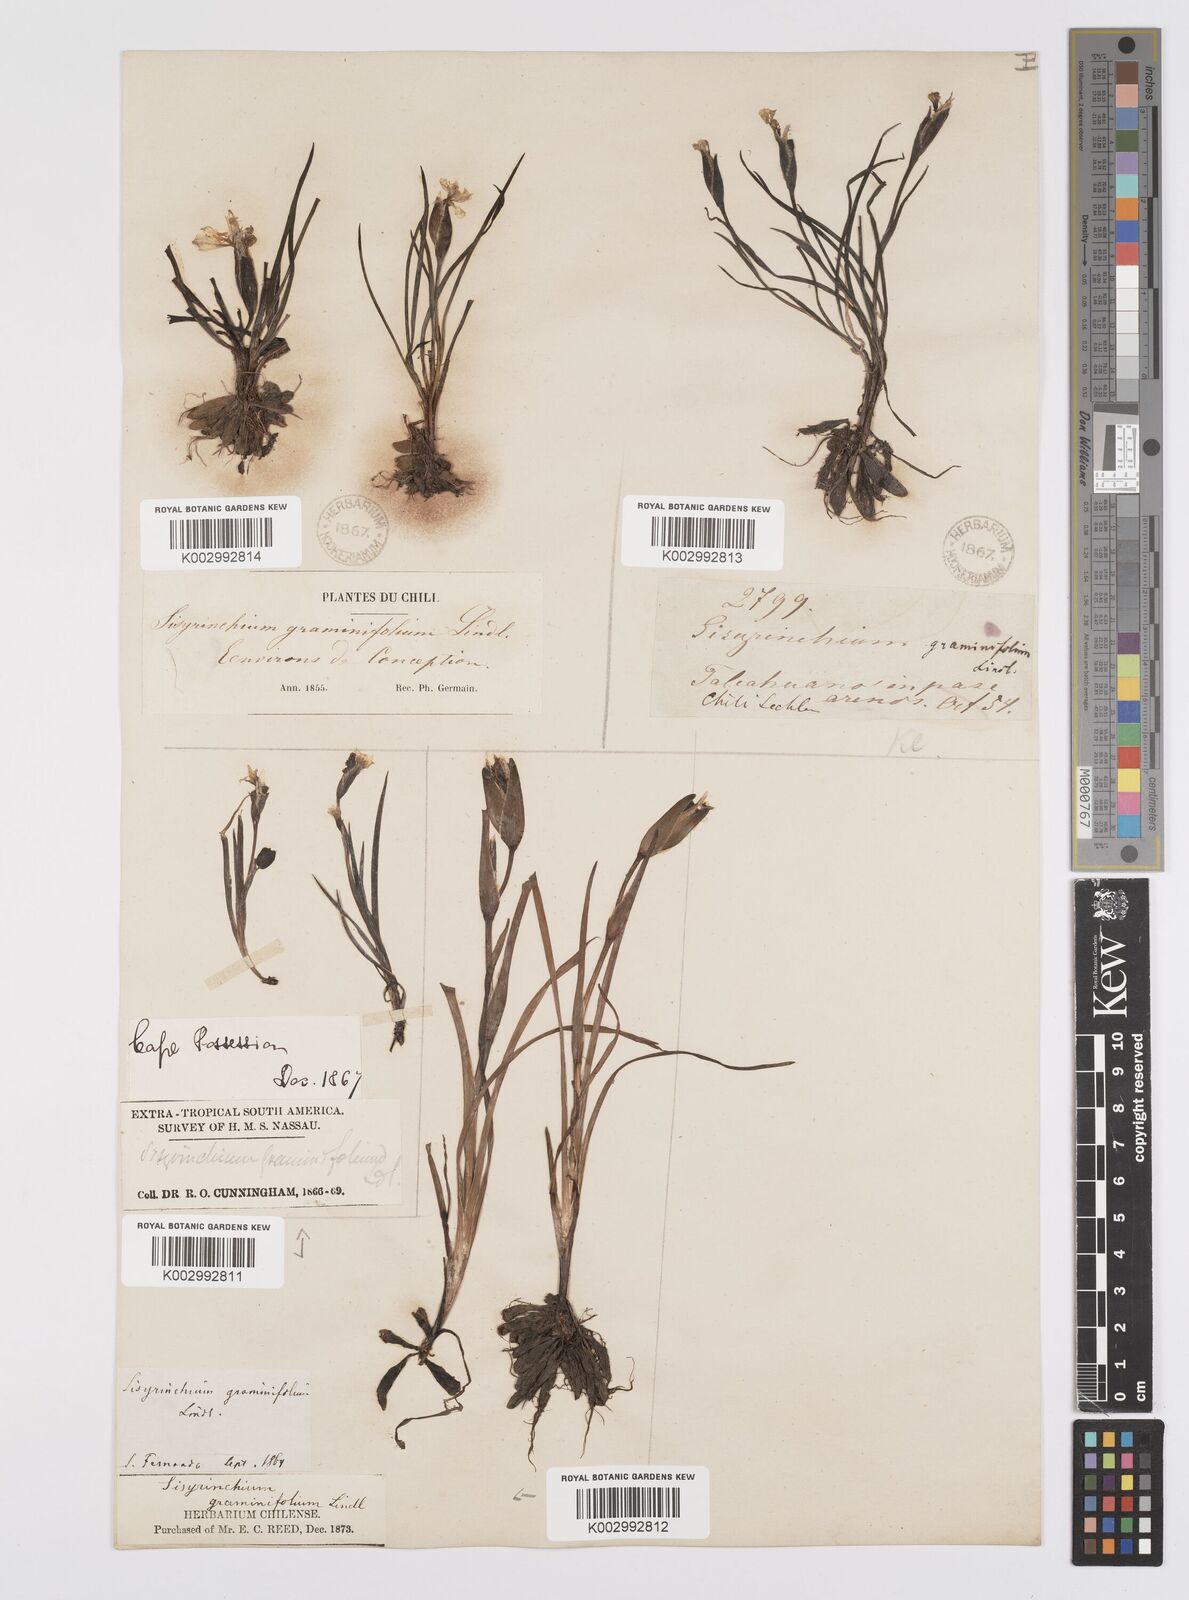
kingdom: Plantae
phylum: Tracheophyta
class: Liliopsida
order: Asparagales
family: Iridaceae
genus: Sisyrinchium
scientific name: Sisyrinchium graminifolium
